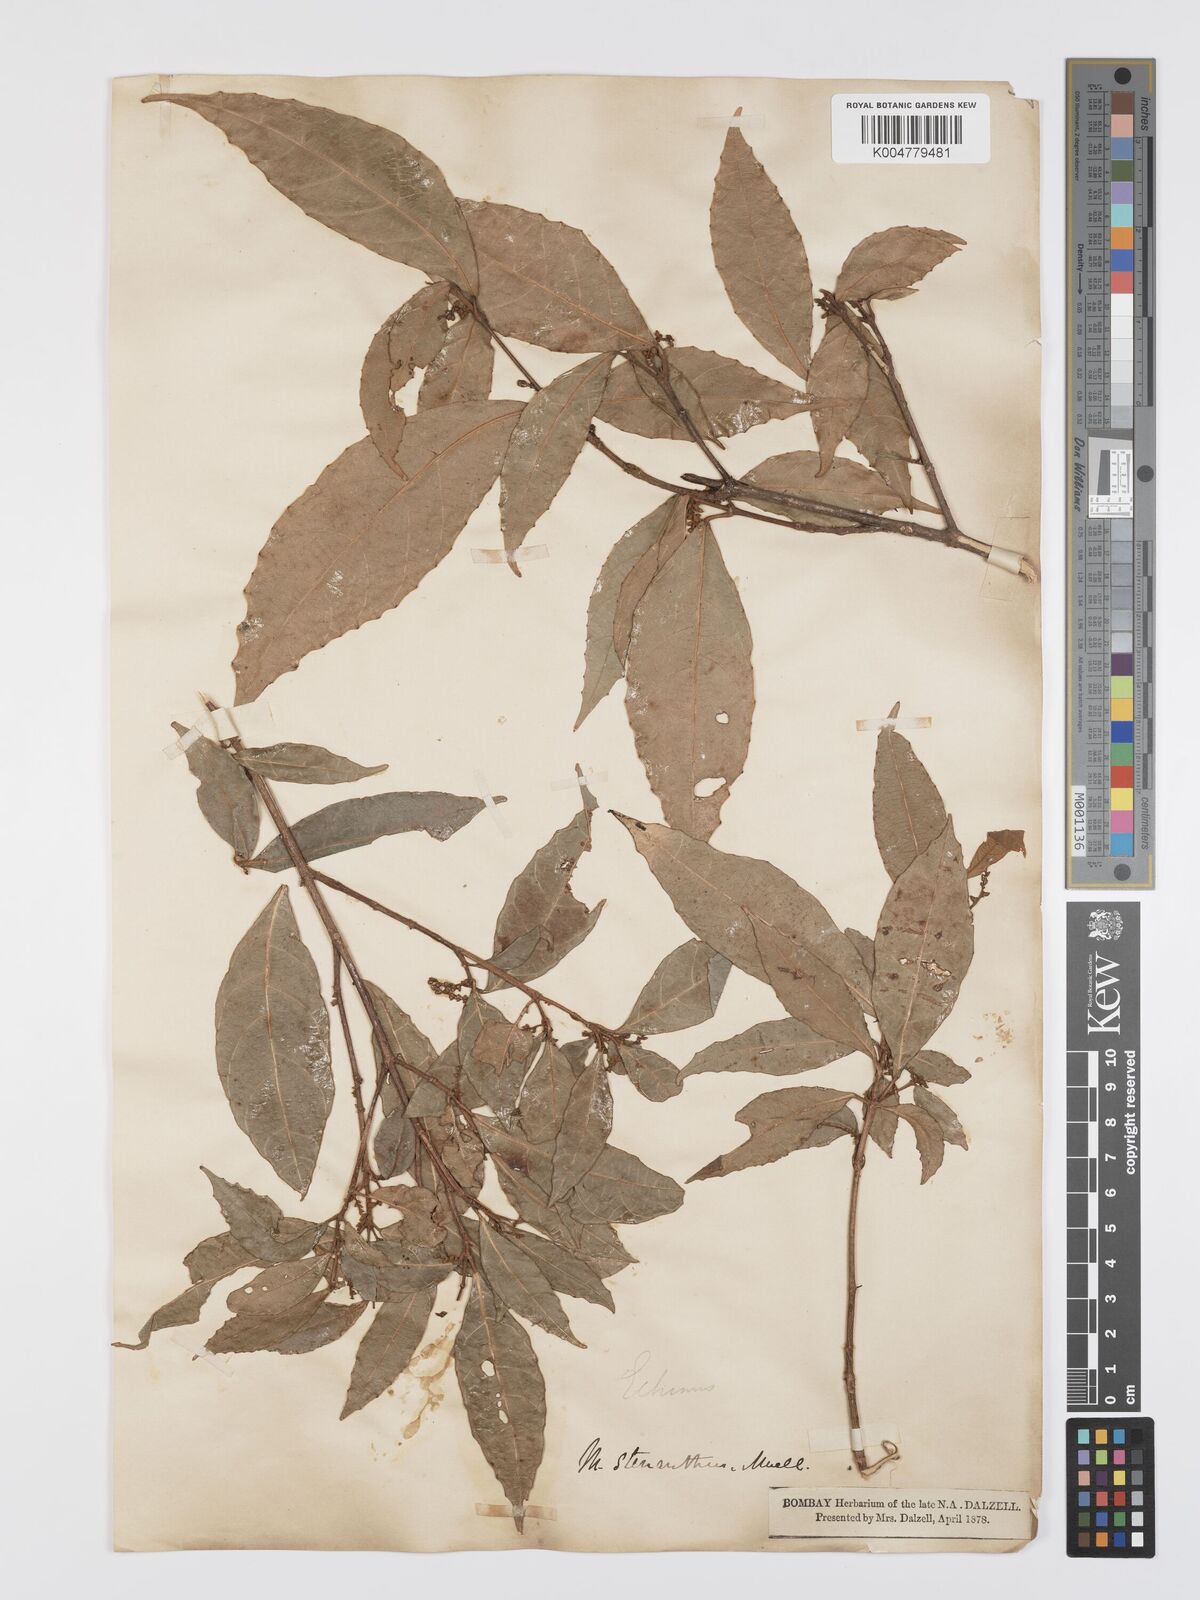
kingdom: Plantae
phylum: Tracheophyta
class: Magnoliopsida
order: Malpighiales
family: Euphorbiaceae
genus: Mallotus
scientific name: Mallotus resinosus
